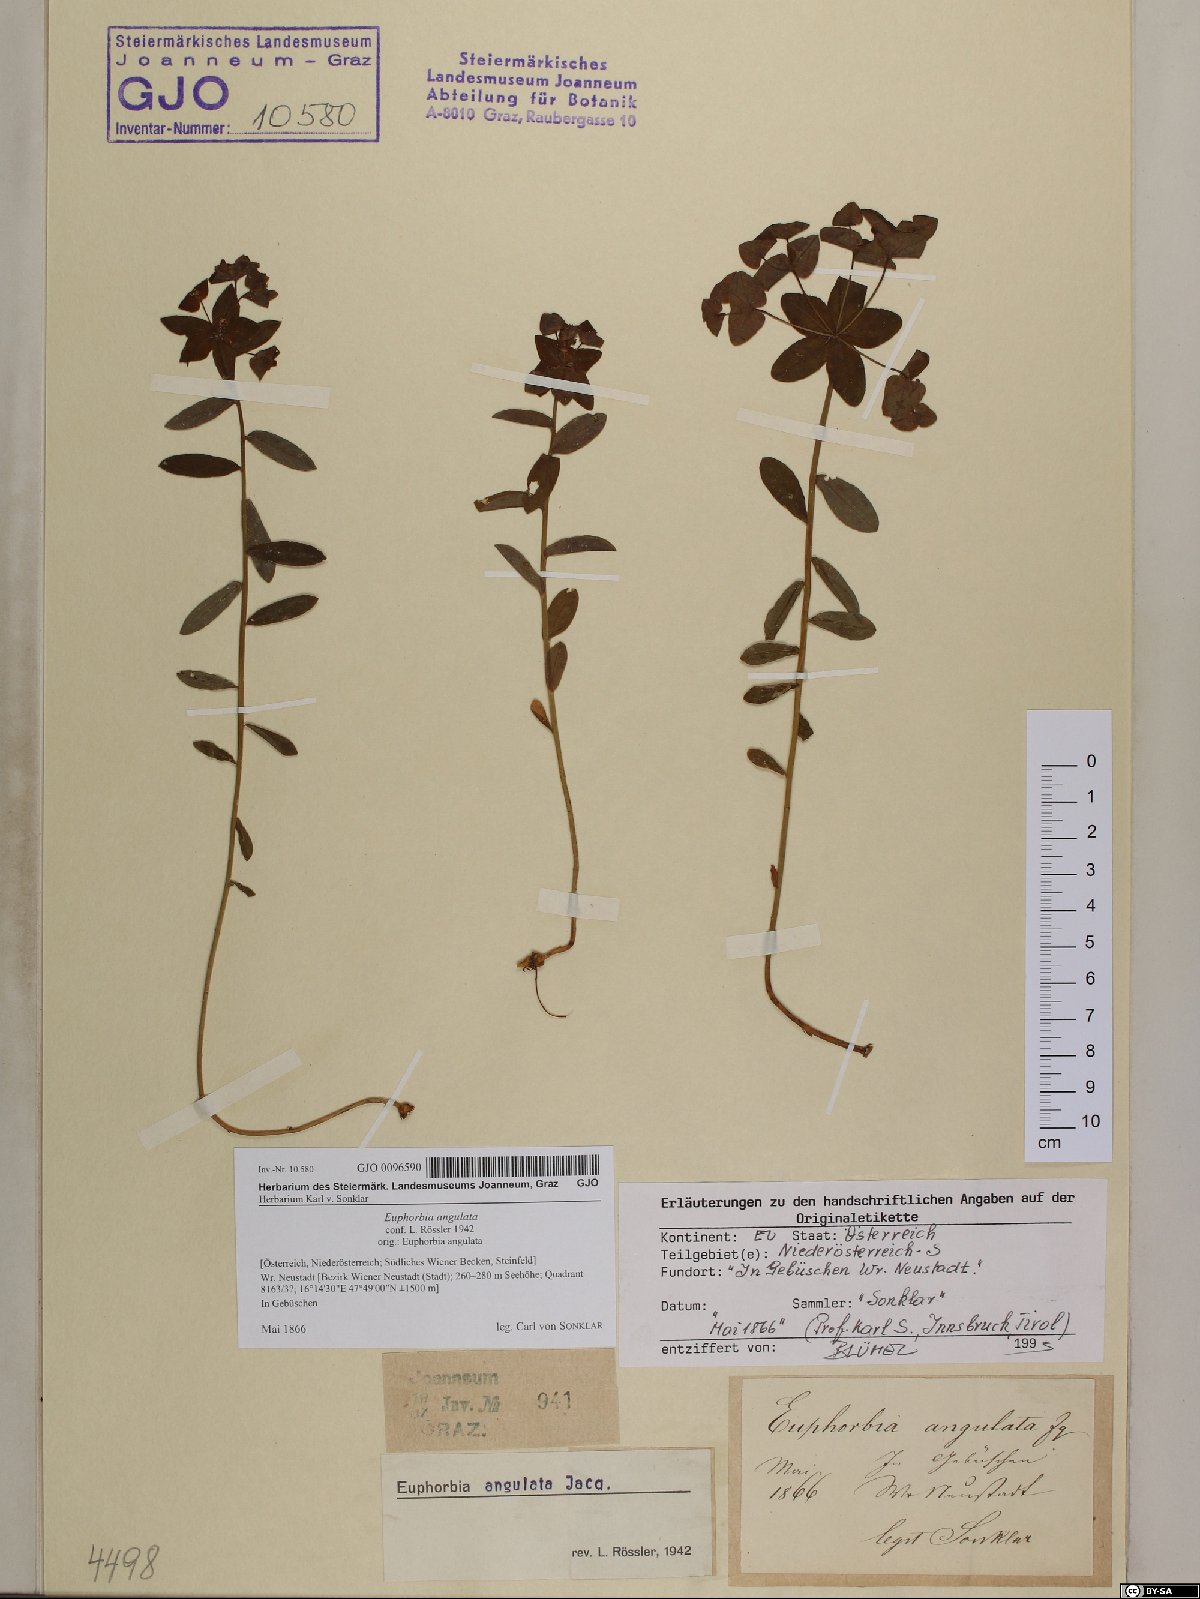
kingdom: Plantae
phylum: Tracheophyta
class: Magnoliopsida
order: Malpighiales
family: Euphorbiaceae
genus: Euphorbia
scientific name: Euphorbia angulata
